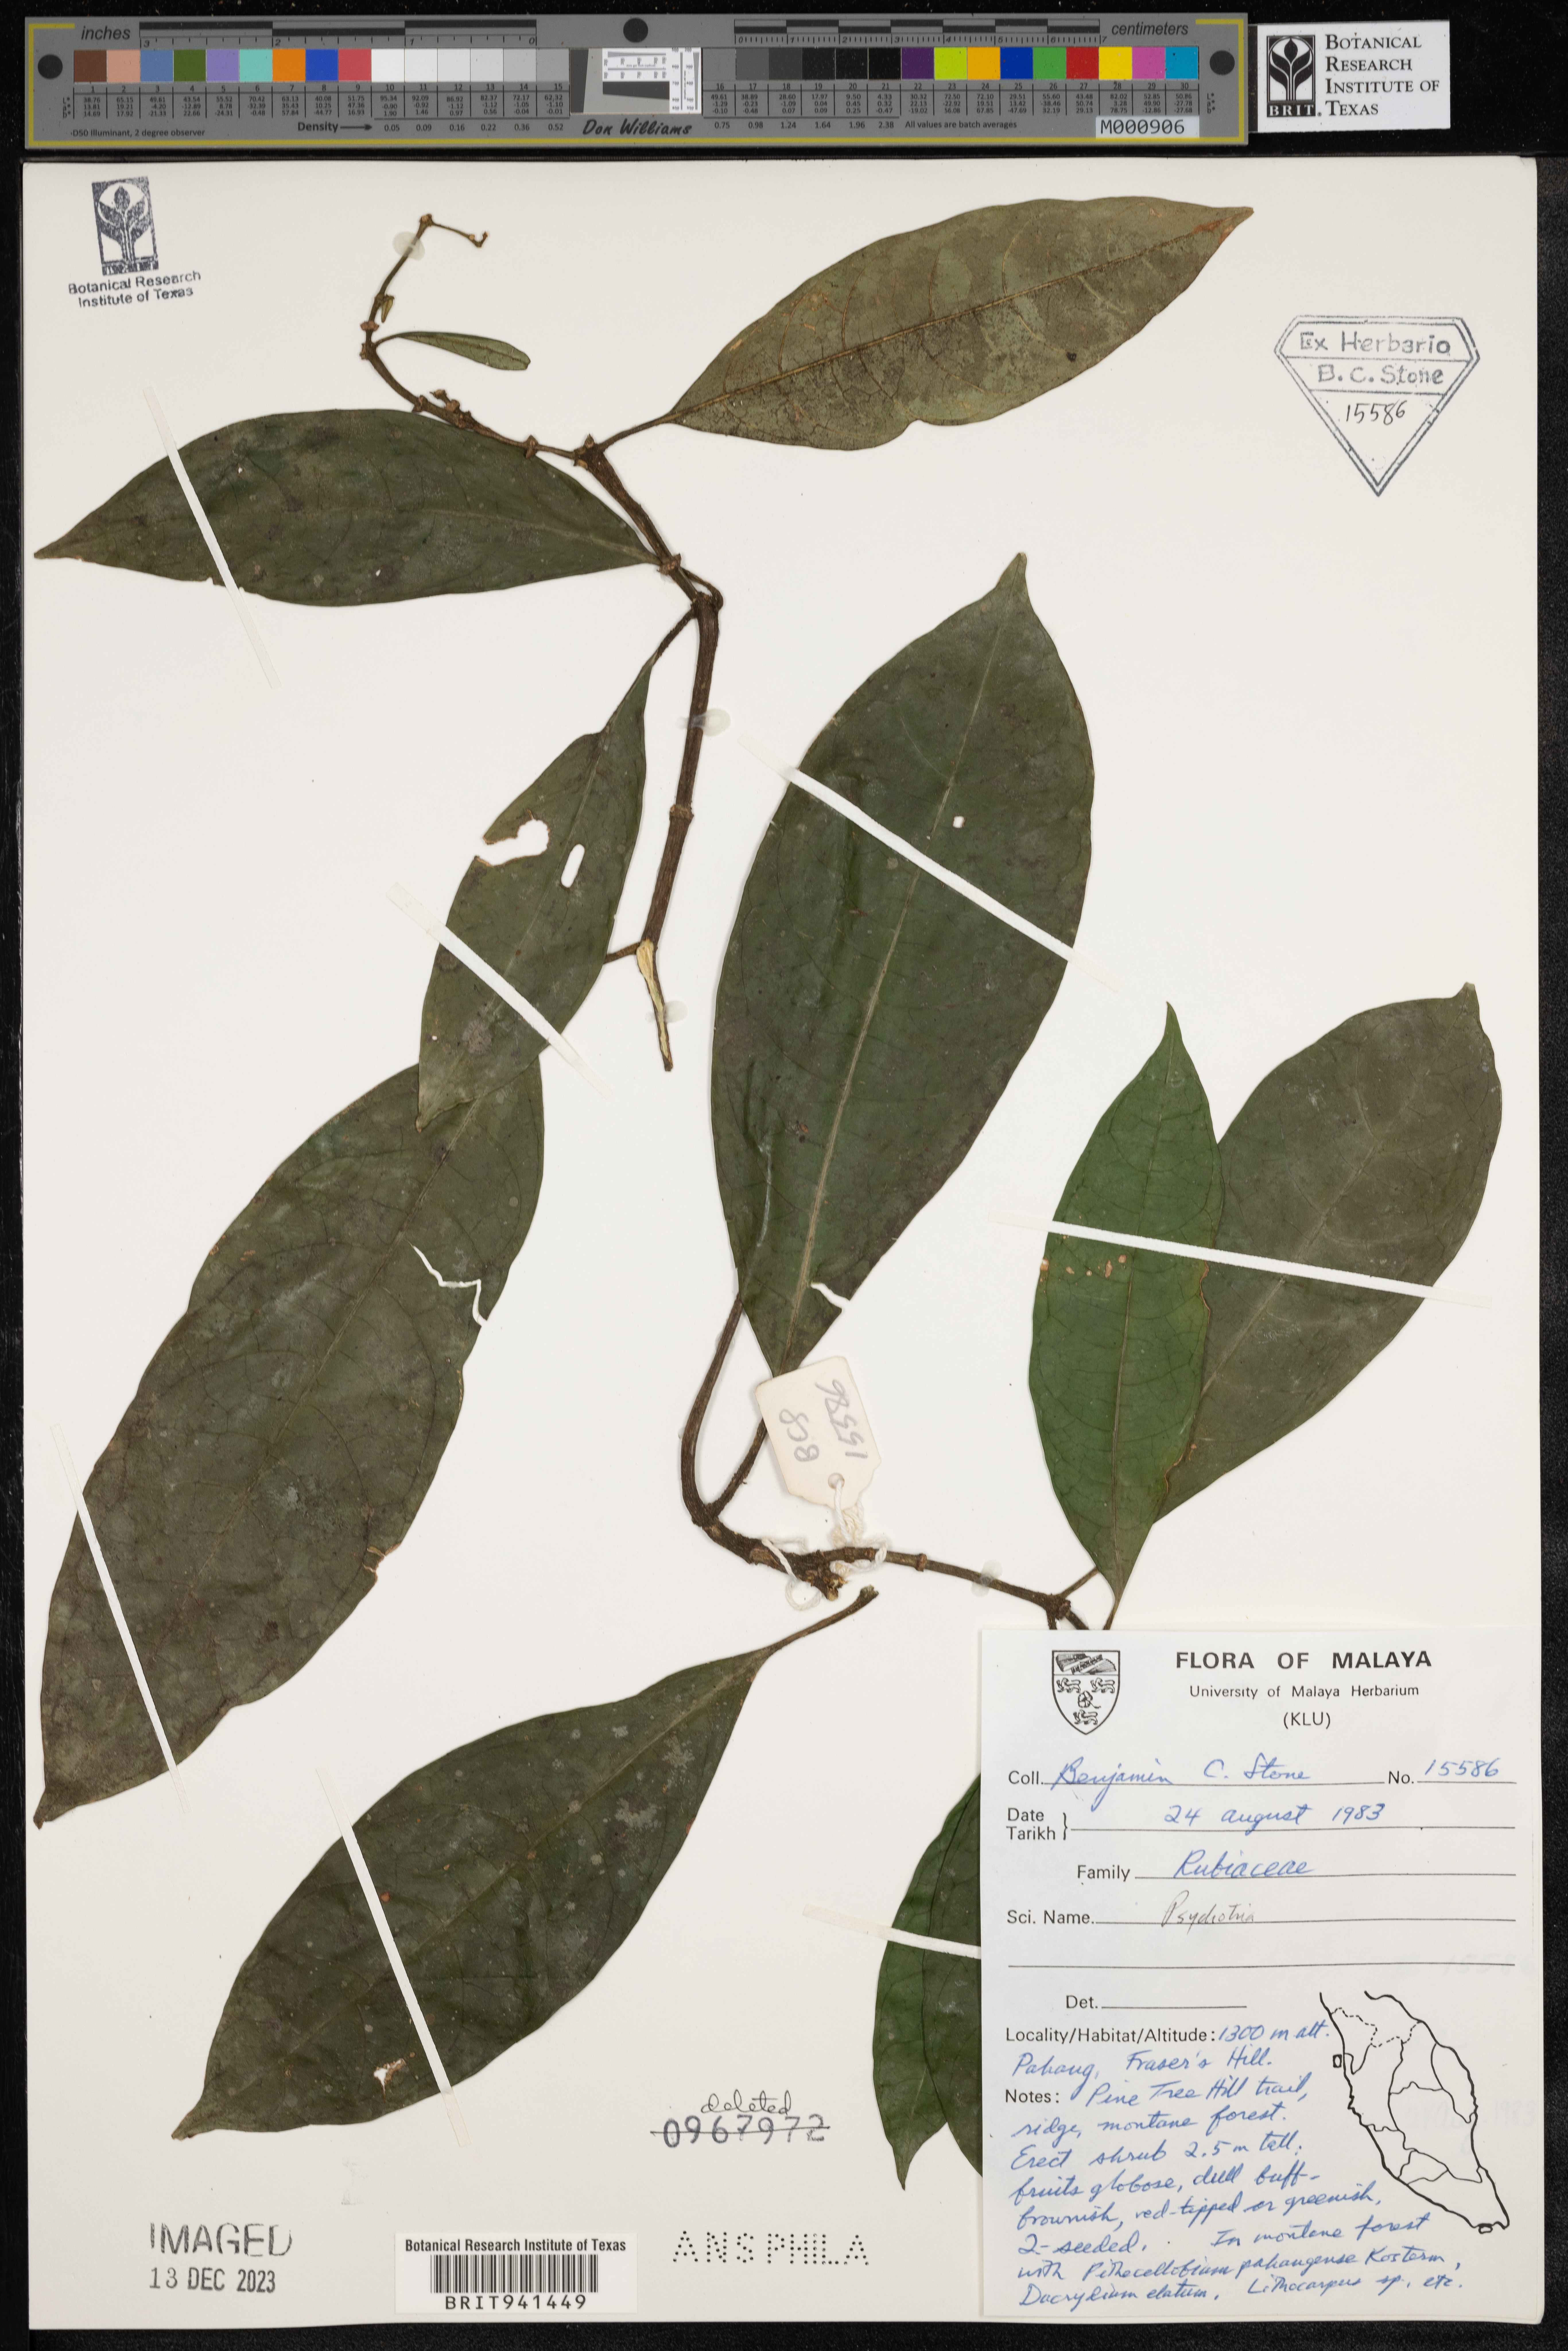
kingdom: Plantae
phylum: Tracheophyta
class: Magnoliopsida
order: Gentianales
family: Rubiaceae
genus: Psychotria
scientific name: Psychotria
